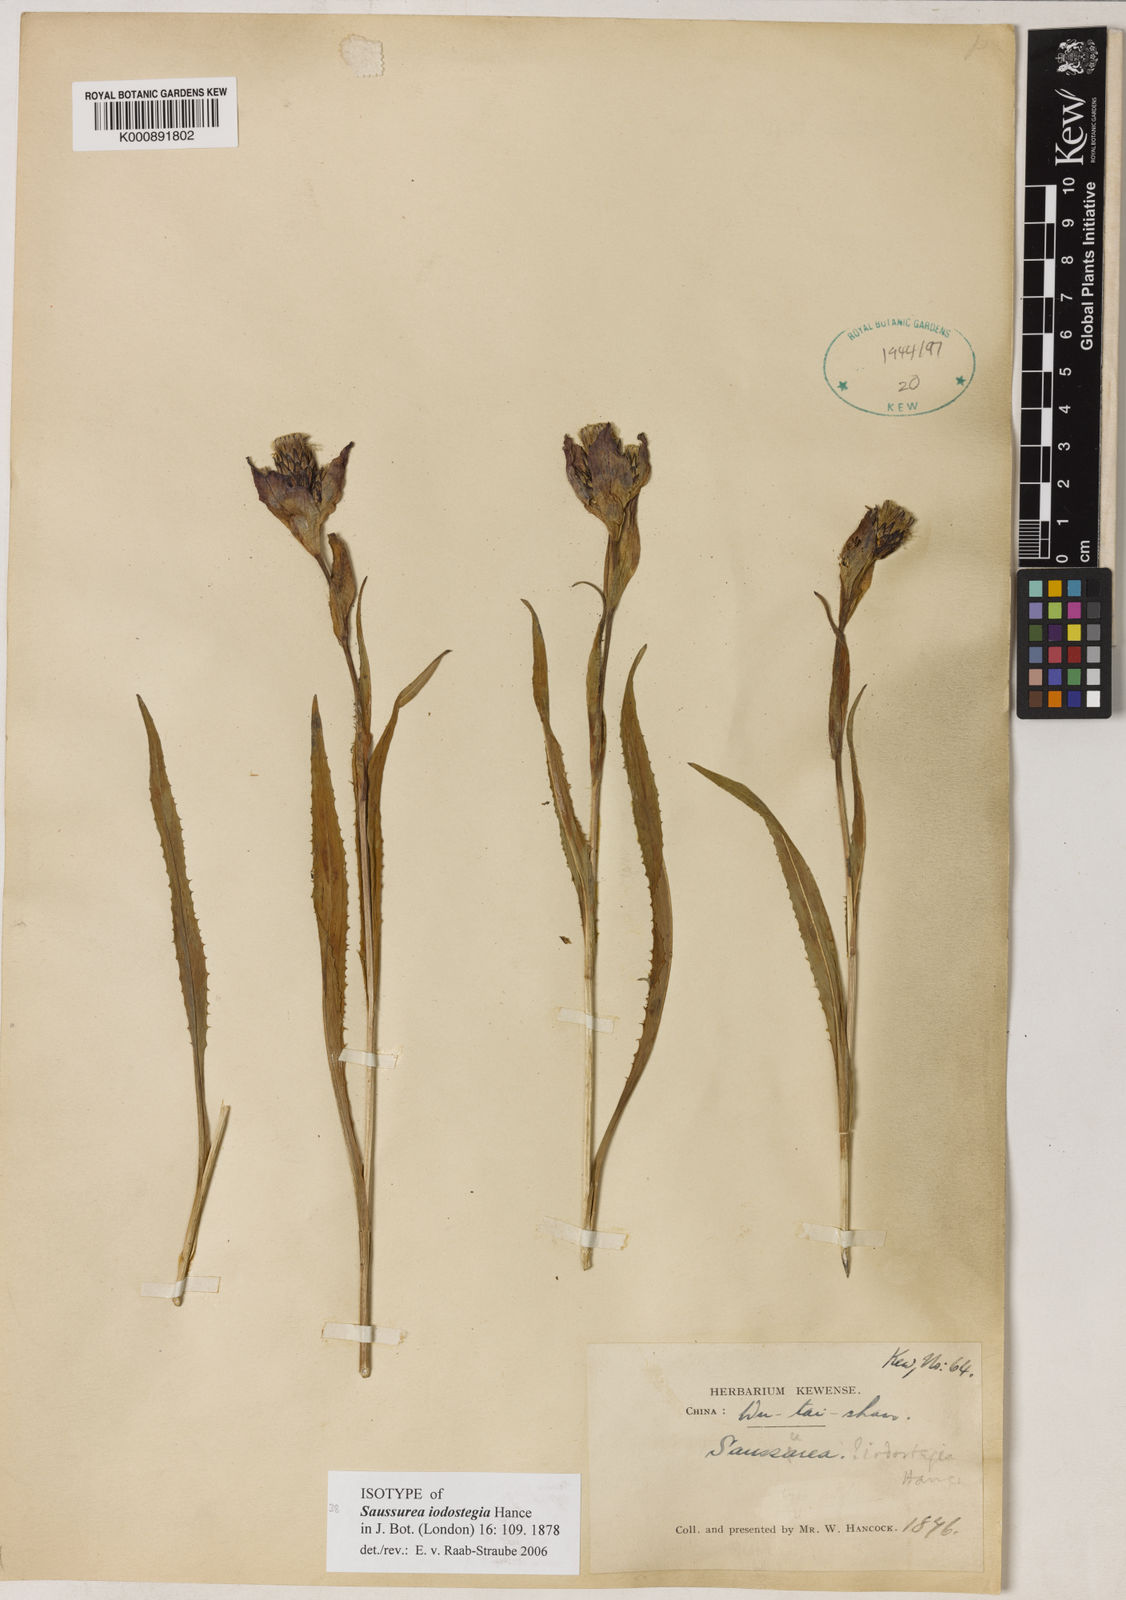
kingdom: Plantae
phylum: Tracheophyta
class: Magnoliopsida
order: Asterales
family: Asteraceae
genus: Saussurea
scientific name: Saussurea iodostegia
